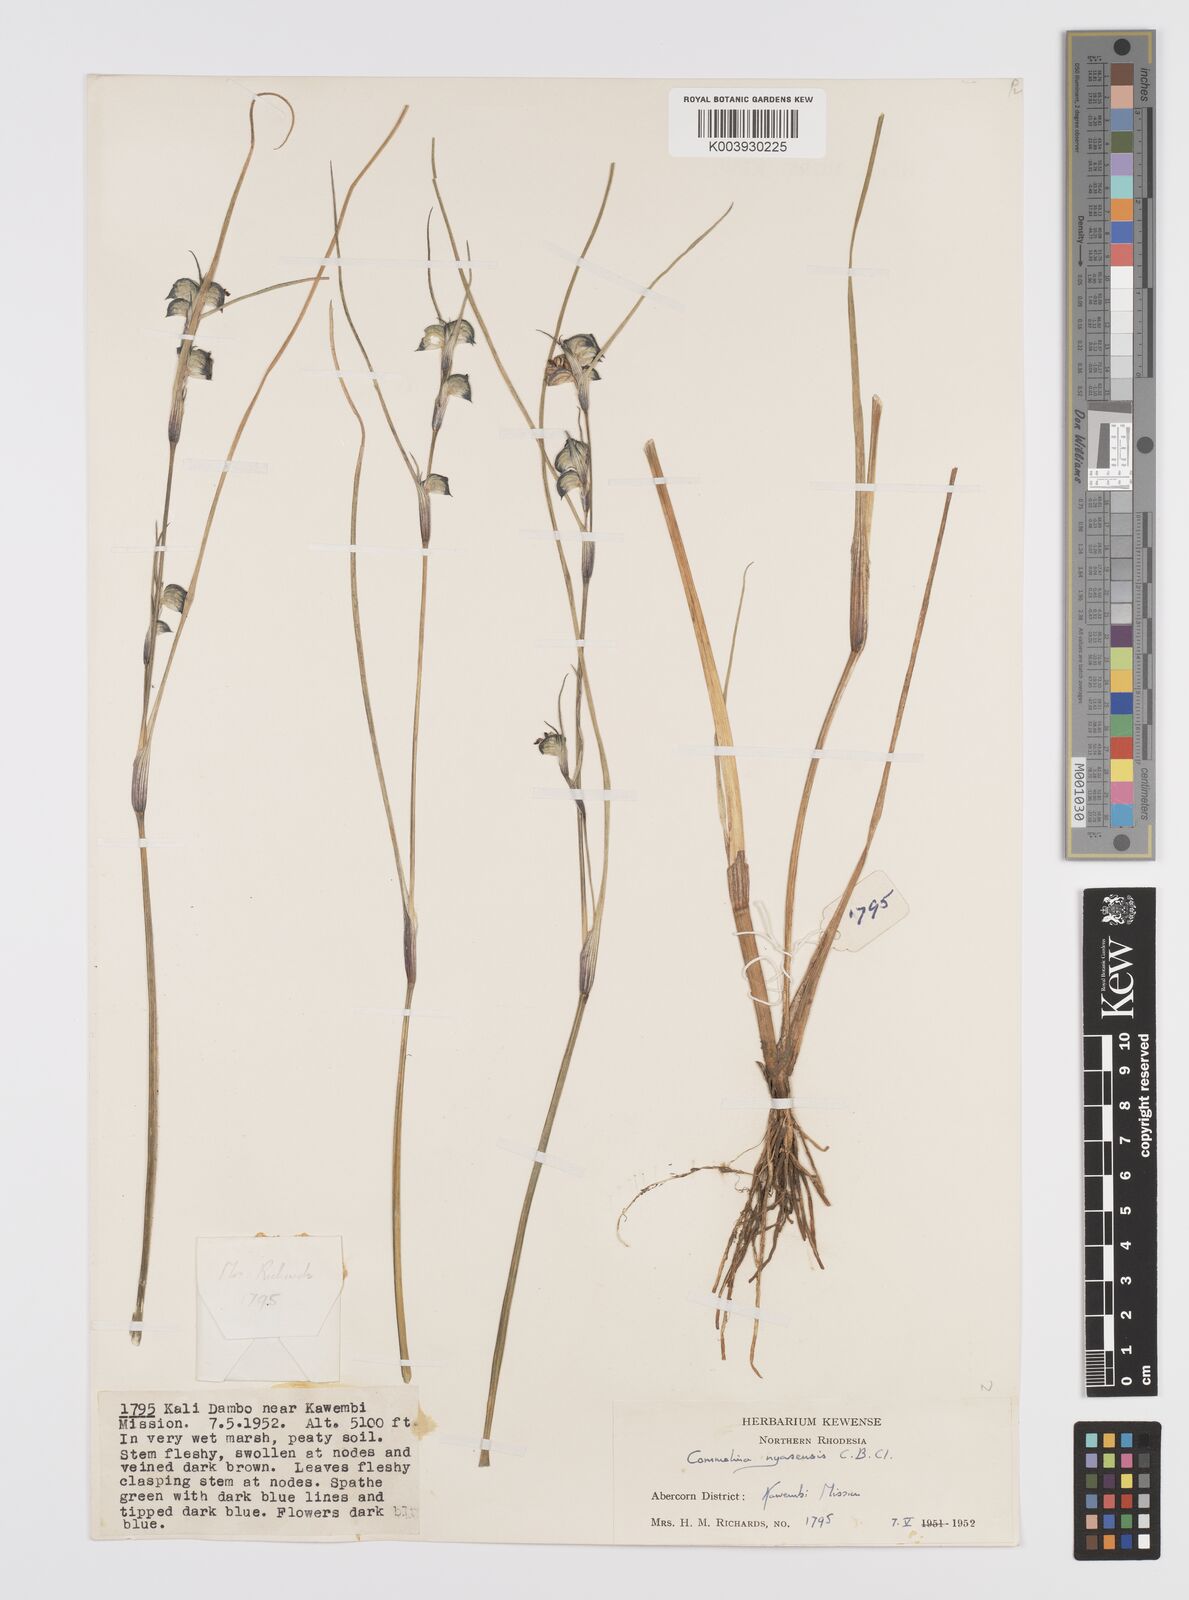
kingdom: Plantae
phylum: Tracheophyta
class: Liliopsida
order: Commelinales
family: Commelinaceae
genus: Commelina
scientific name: Commelina nyasensis
